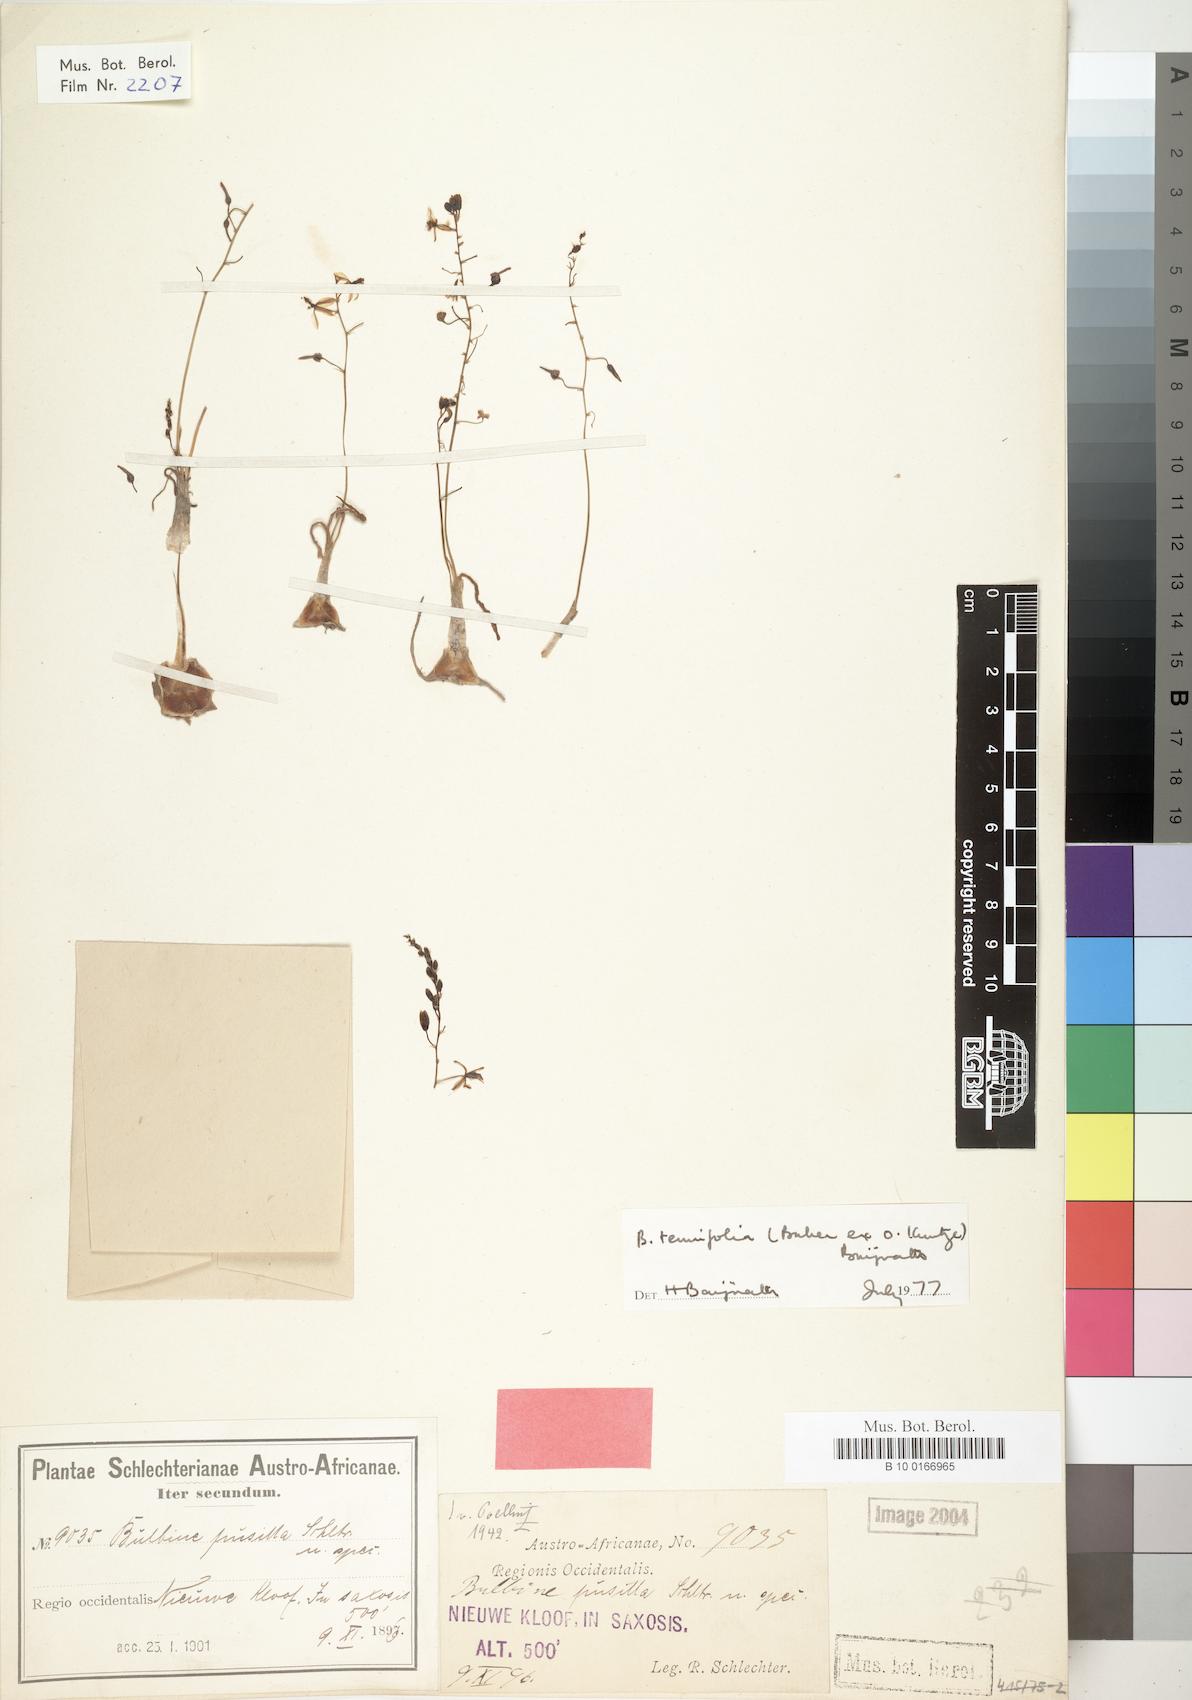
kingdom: Plantae
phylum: Tracheophyta
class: Liliopsida
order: Liliales
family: Liliaceae
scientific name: Liliaceae
